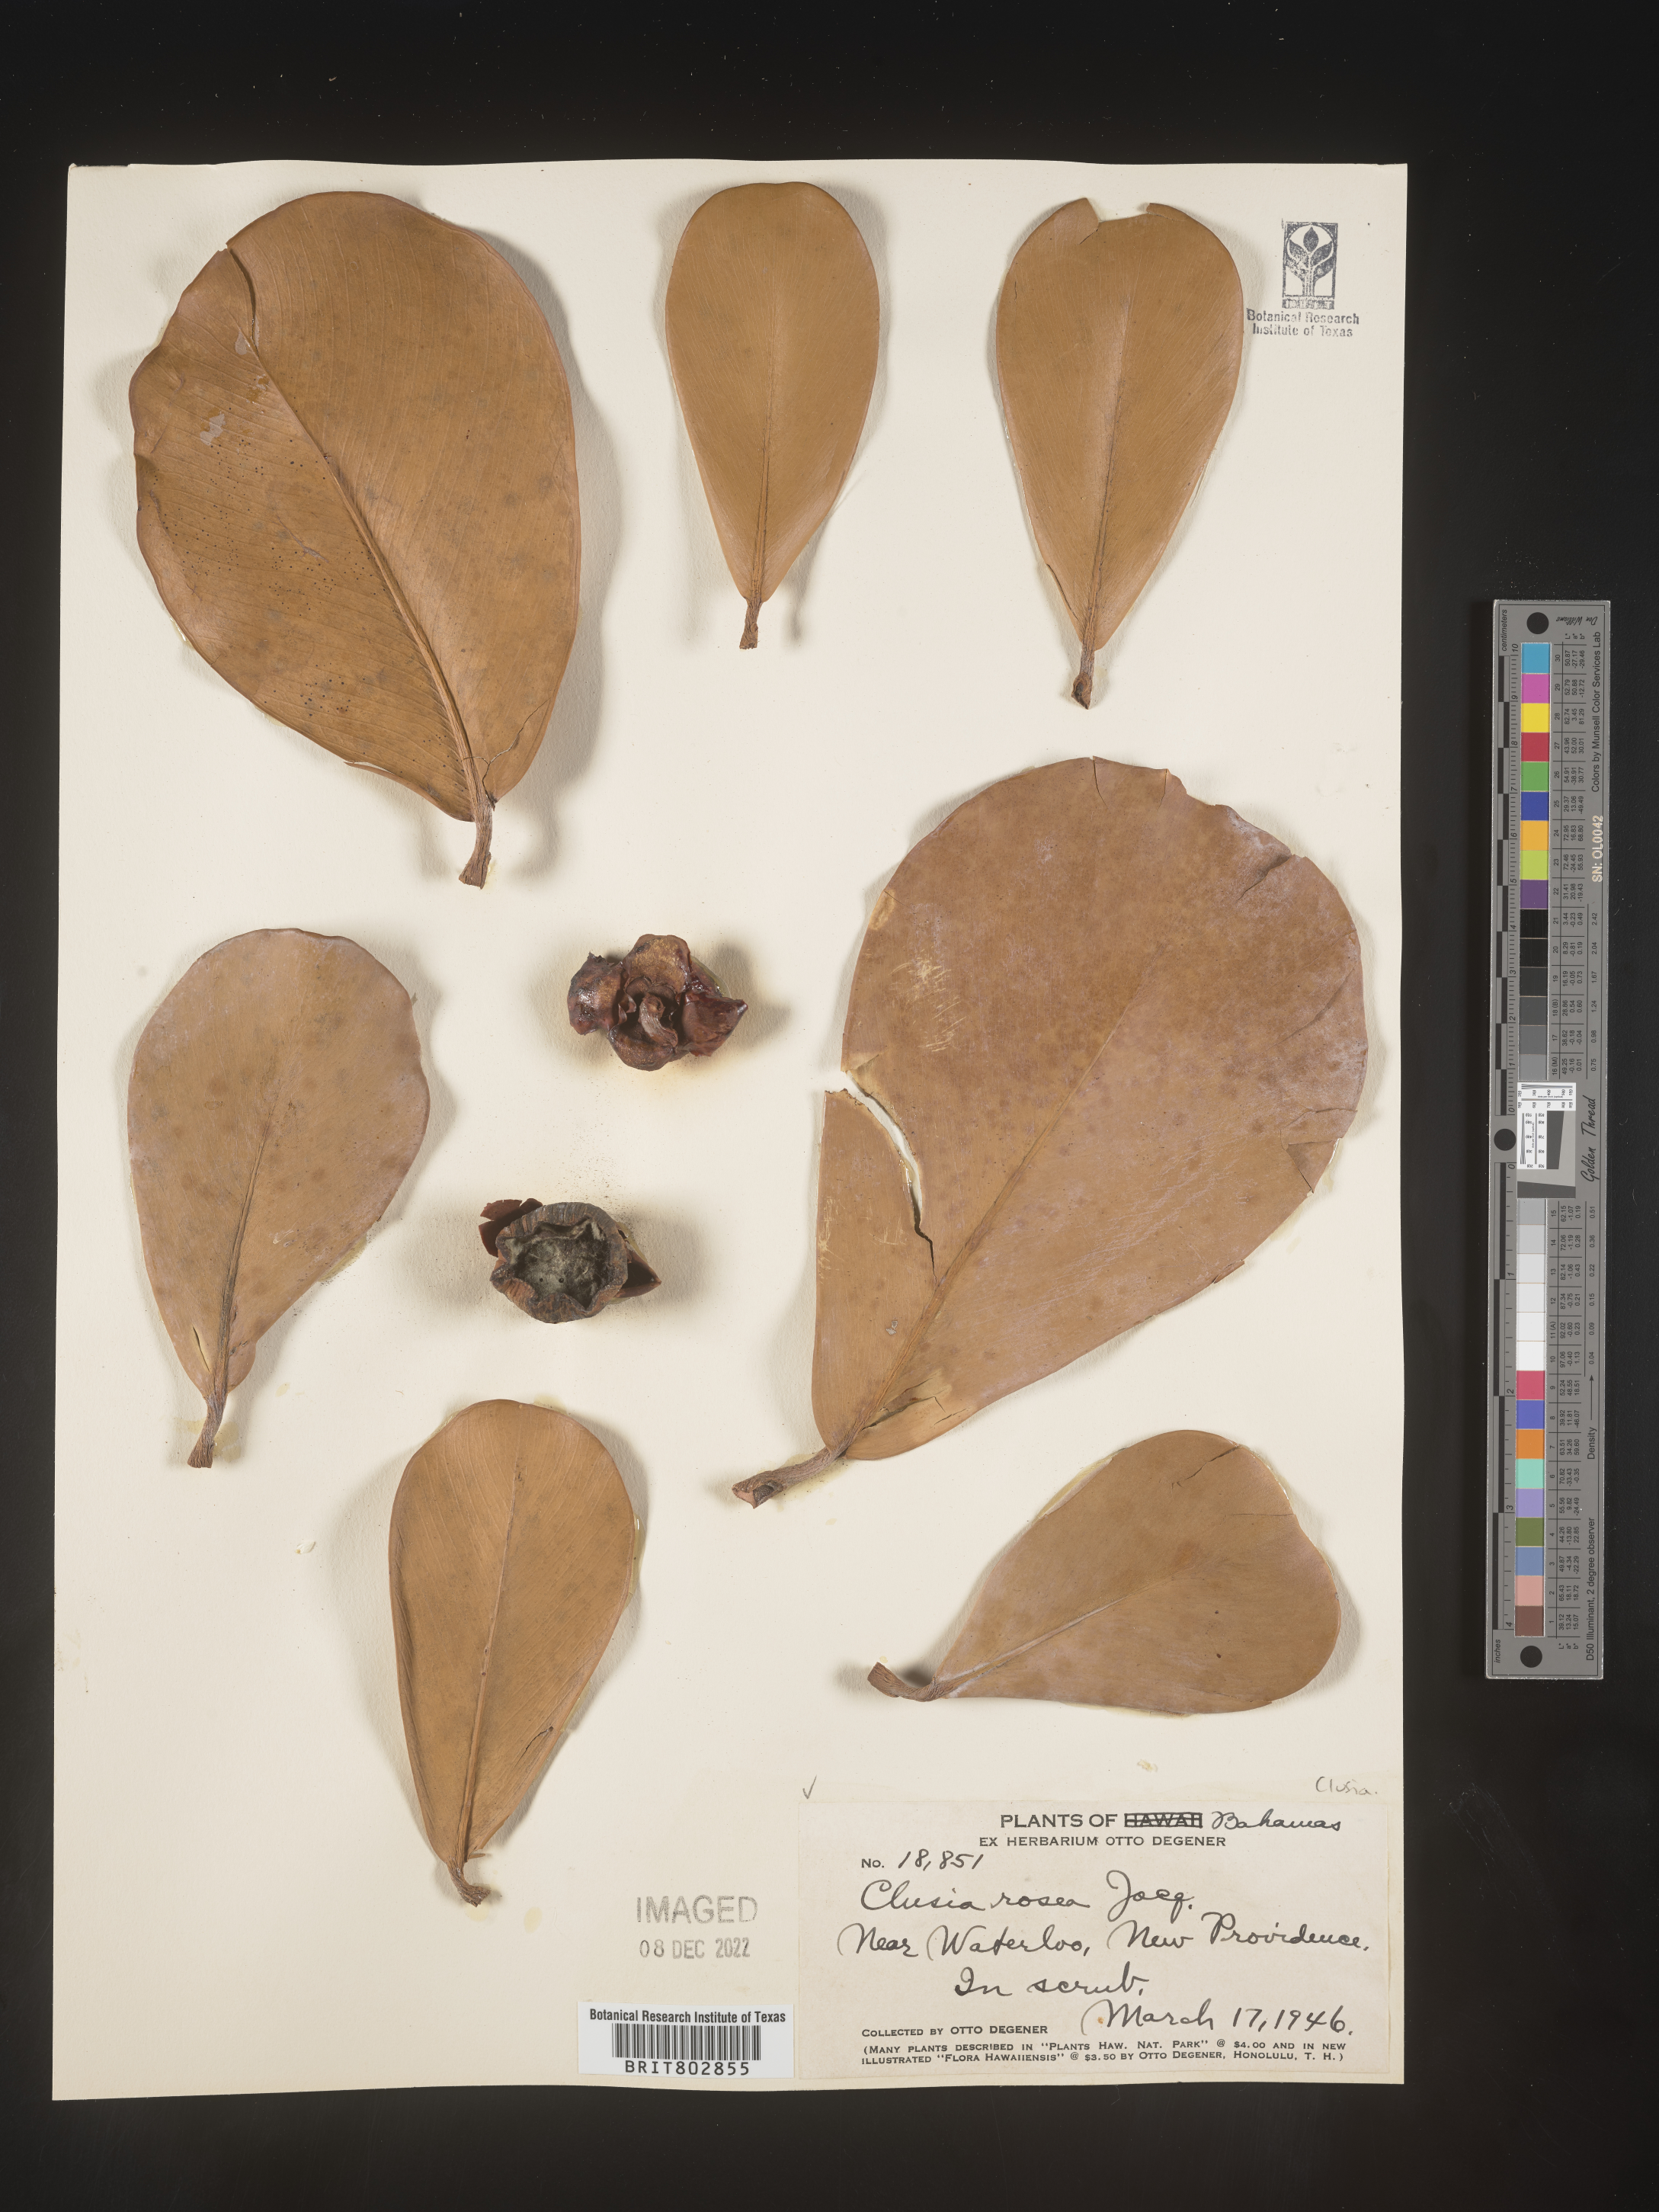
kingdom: Plantae
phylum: Tracheophyta
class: Magnoliopsida
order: Malpighiales
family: Clusiaceae
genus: Clusia
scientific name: Clusia
